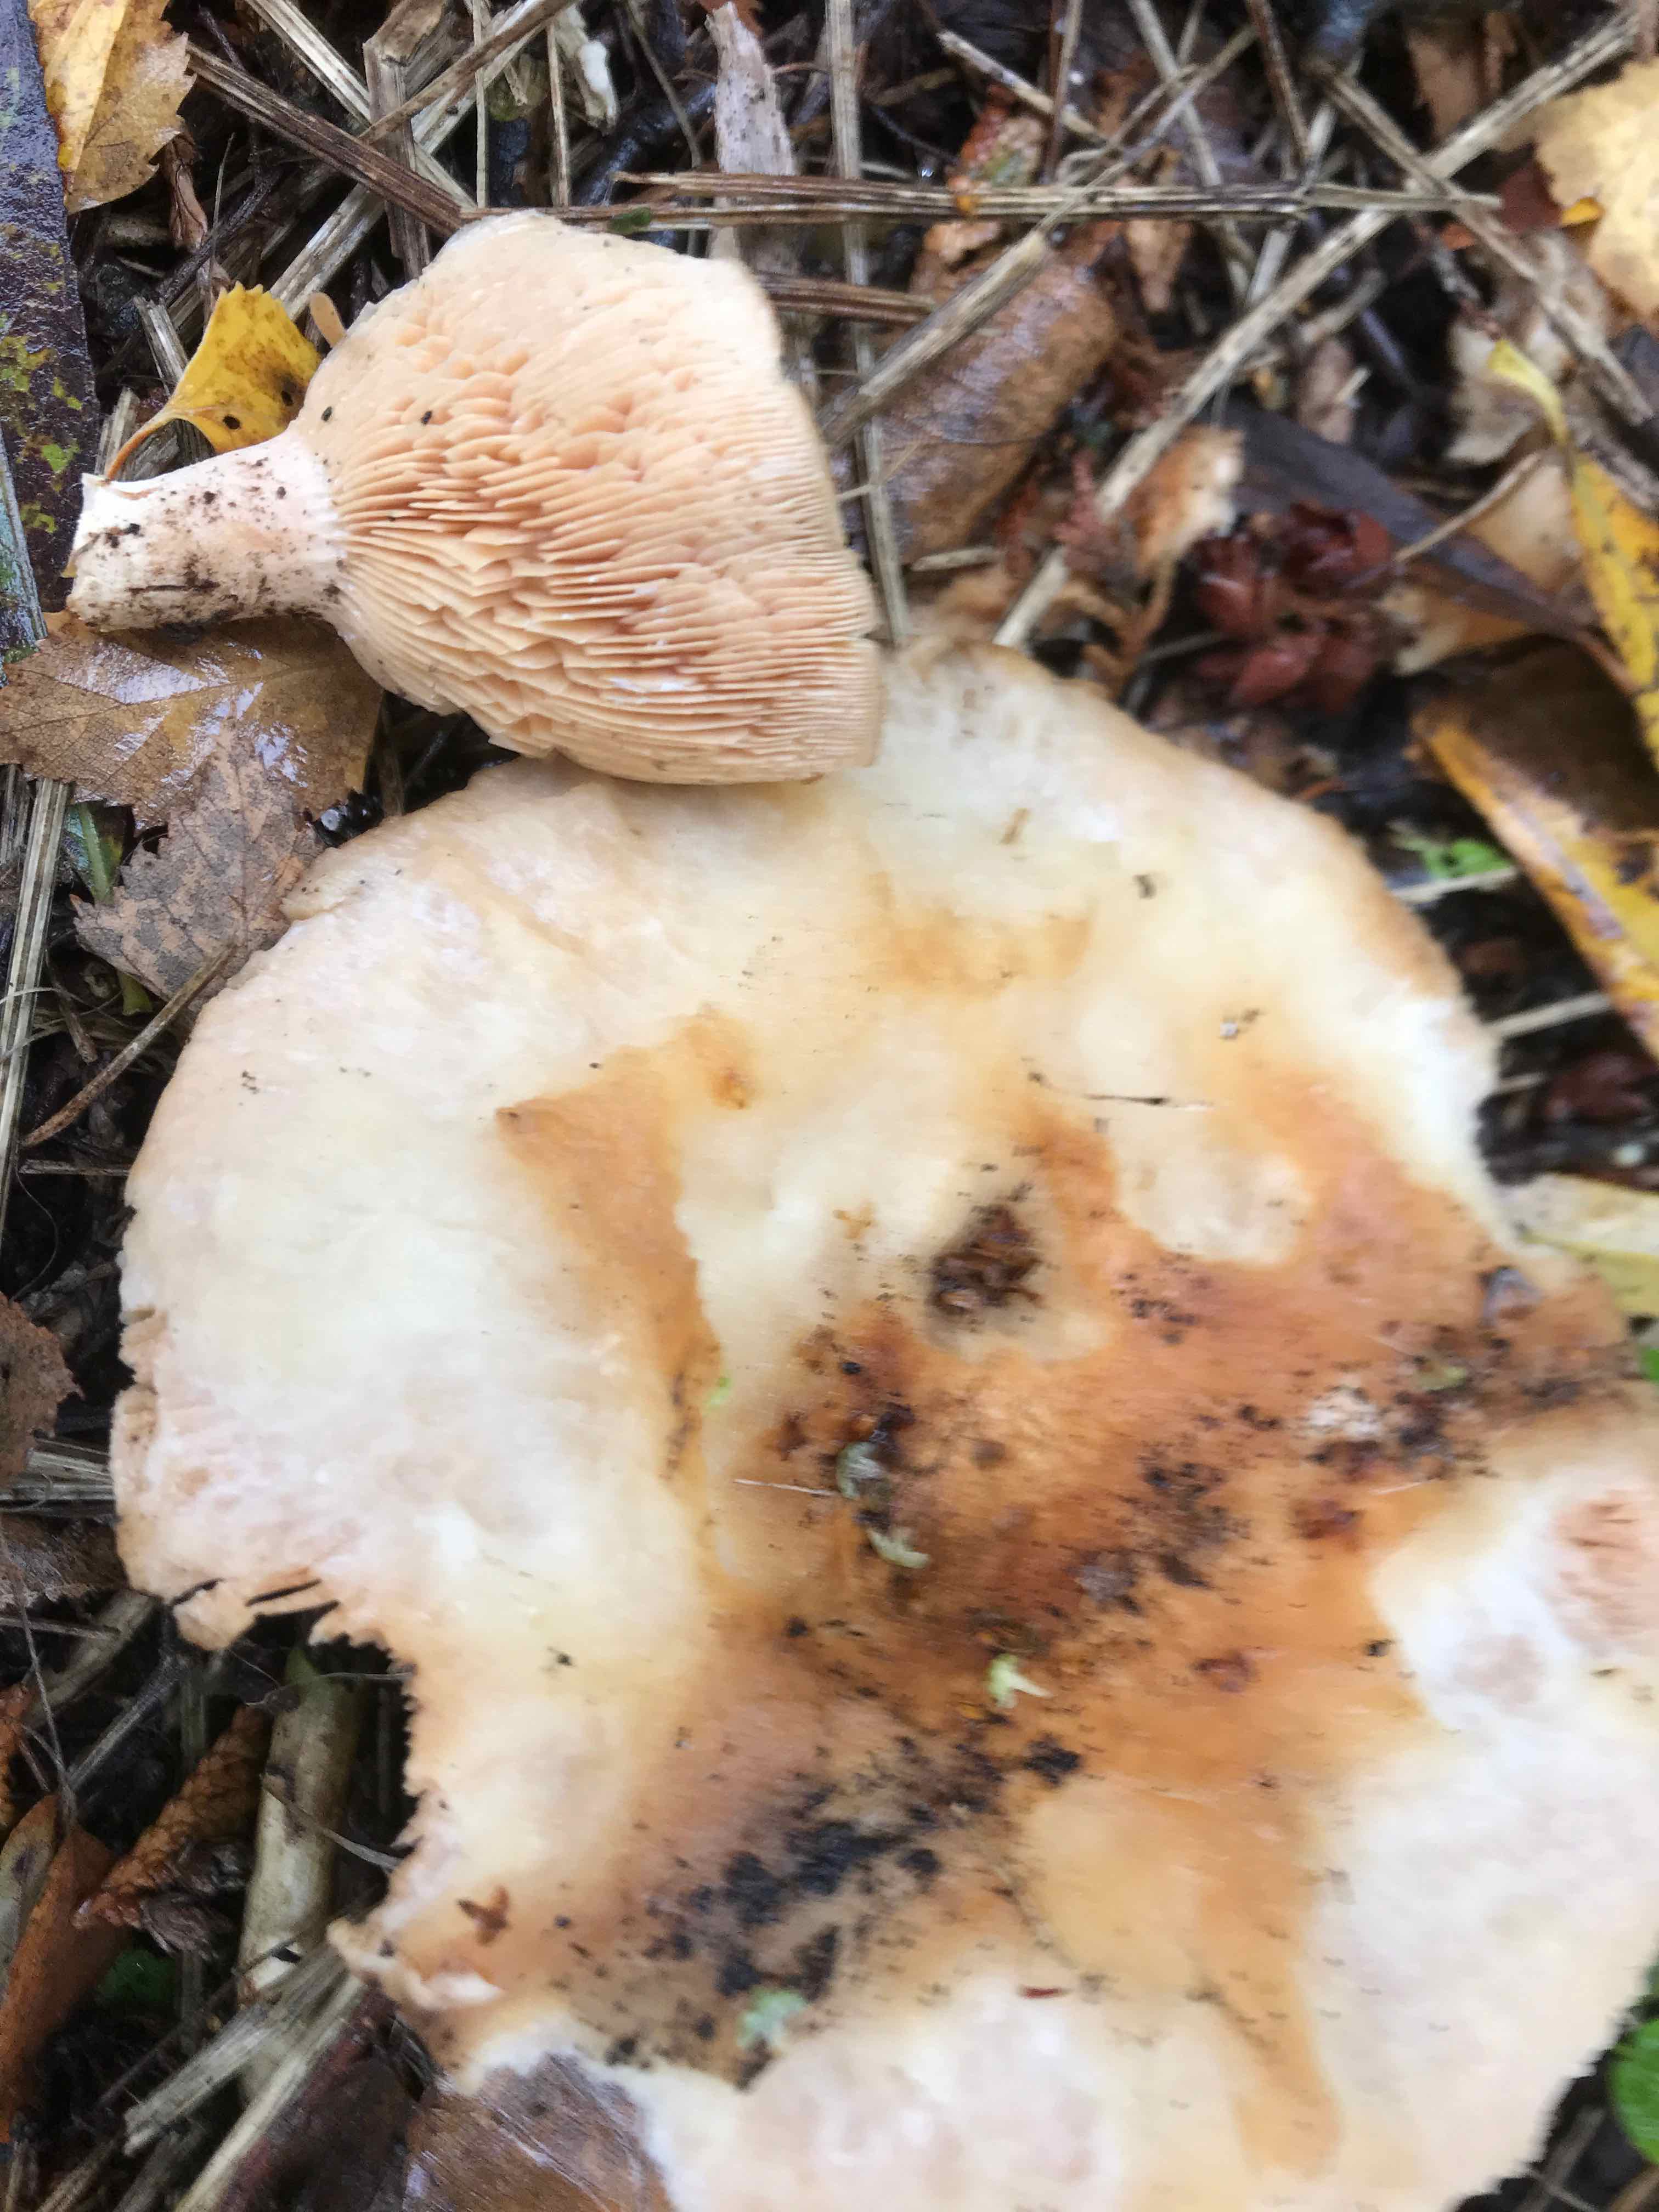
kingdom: Fungi
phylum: Basidiomycota
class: Agaricomycetes
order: Russulales
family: Russulaceae
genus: Lactarius
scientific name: Lactarius pubescens
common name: dunet mælkehat
